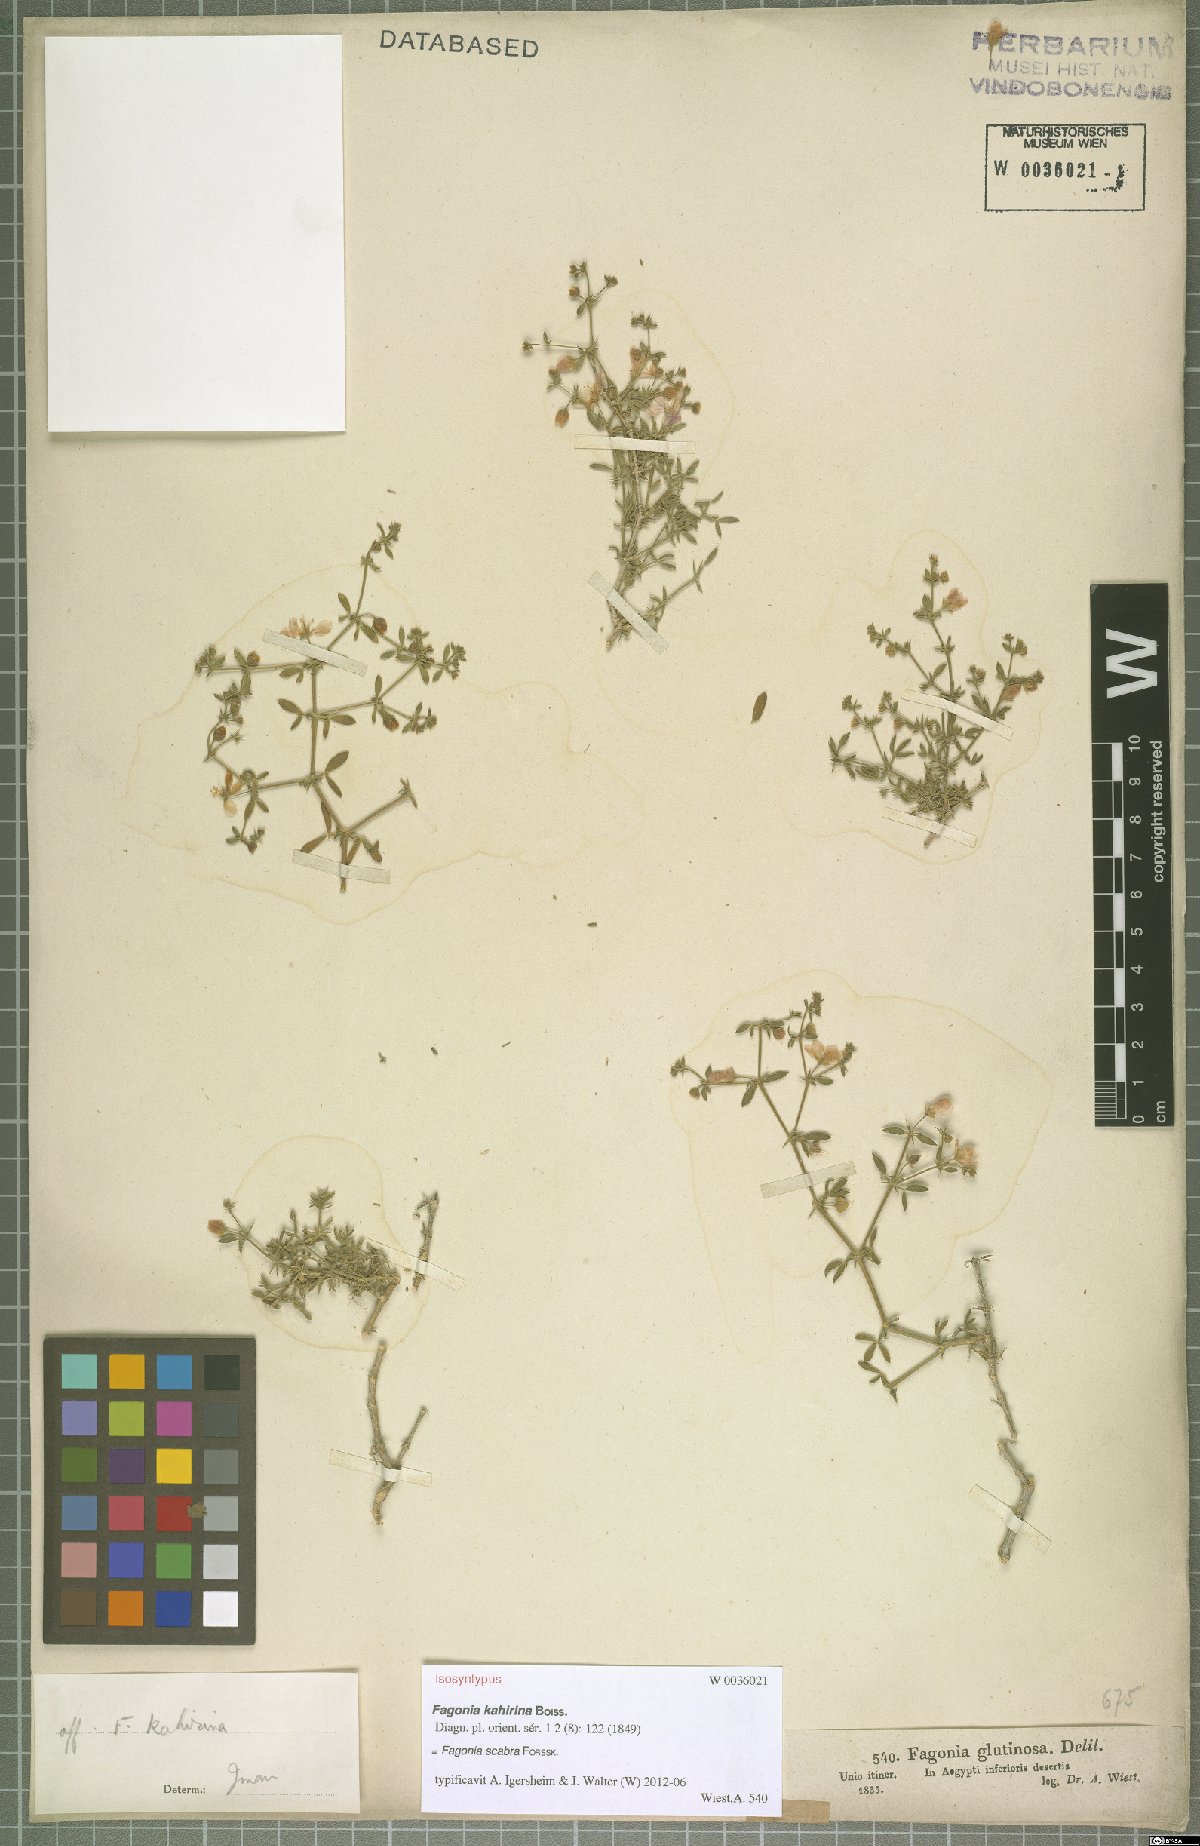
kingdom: Plantae
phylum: Tracheophyta
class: Magnoliopsida
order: Zygophyllales
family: Zygophyllaceae
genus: Fagonia
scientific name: Fagonia scabra
